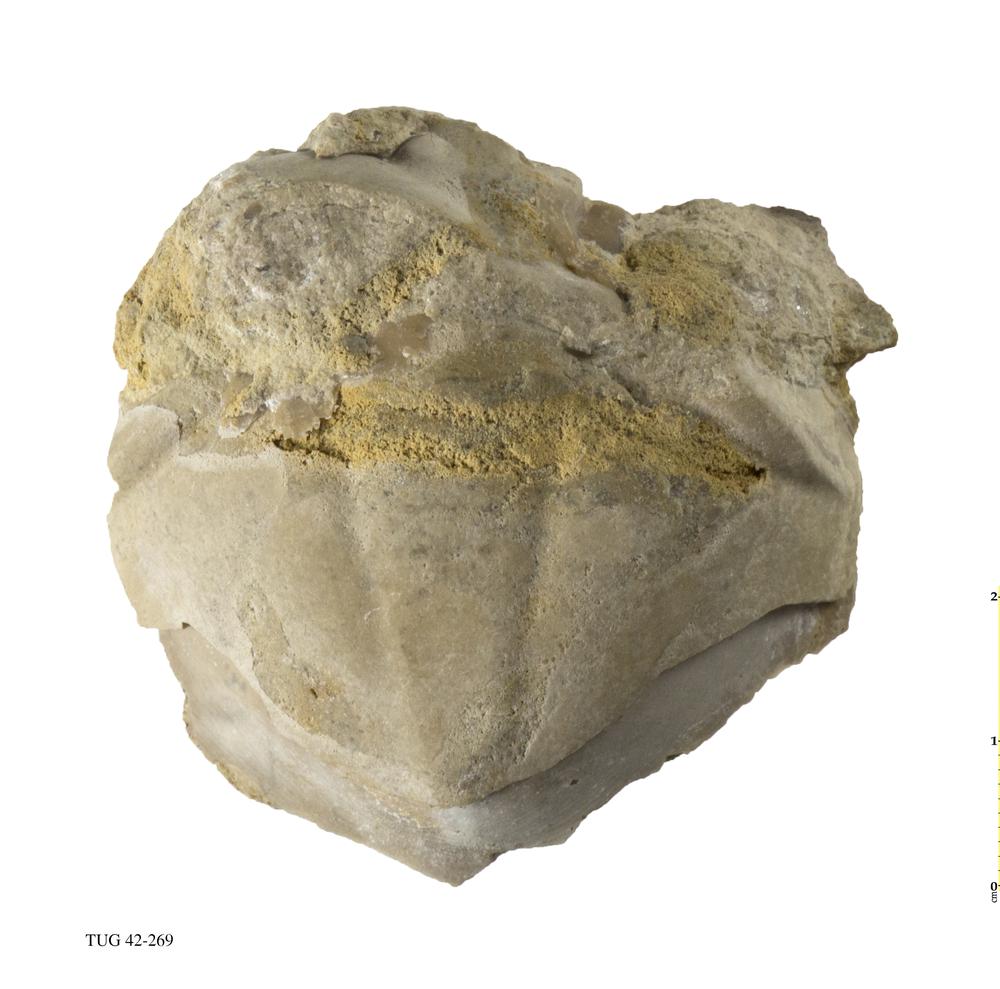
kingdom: Animalia
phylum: Arthropoda
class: Trilobita
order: Asaphida
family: Asaphidae
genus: Asaphus
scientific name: Asaphus expansus
